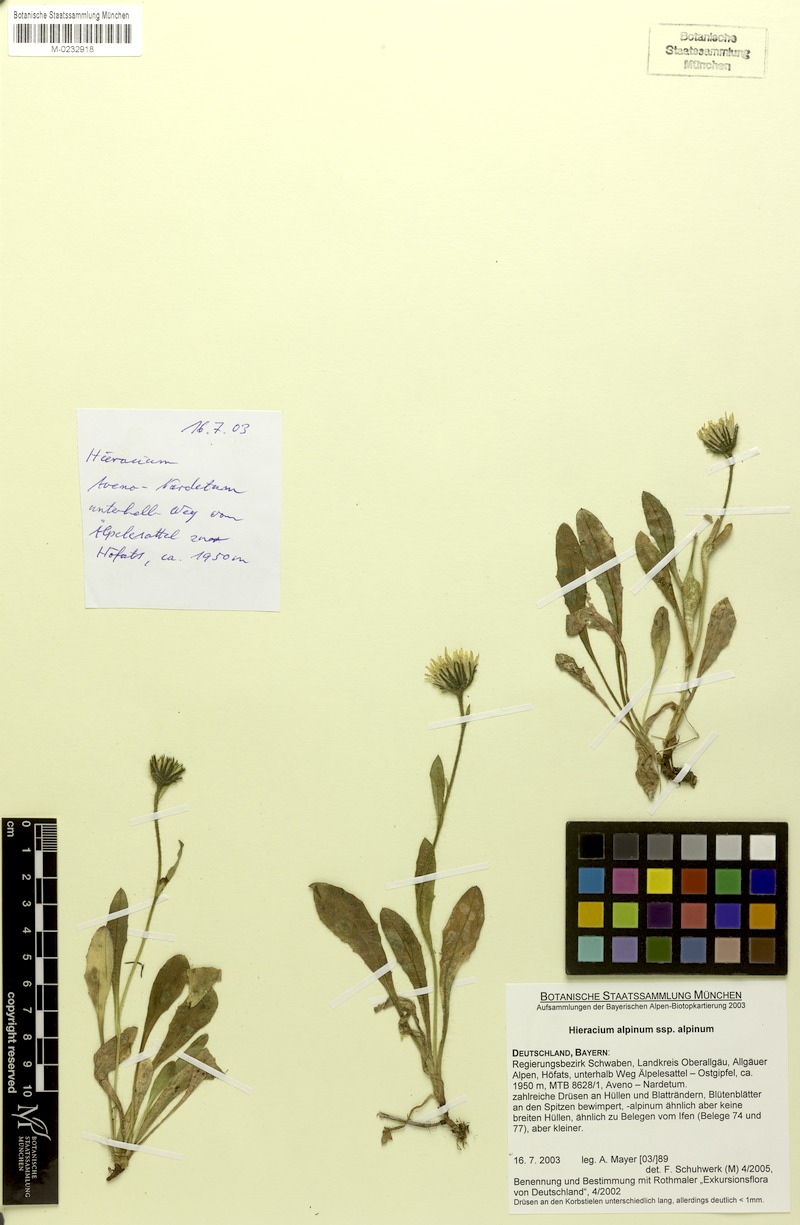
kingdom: Plantae
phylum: Tracheophyta
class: Magnoliopsida
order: Asterales
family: Asteraceae
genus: Hieracium
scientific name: Hieracium amplexicaule
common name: Sticky hawkweed
